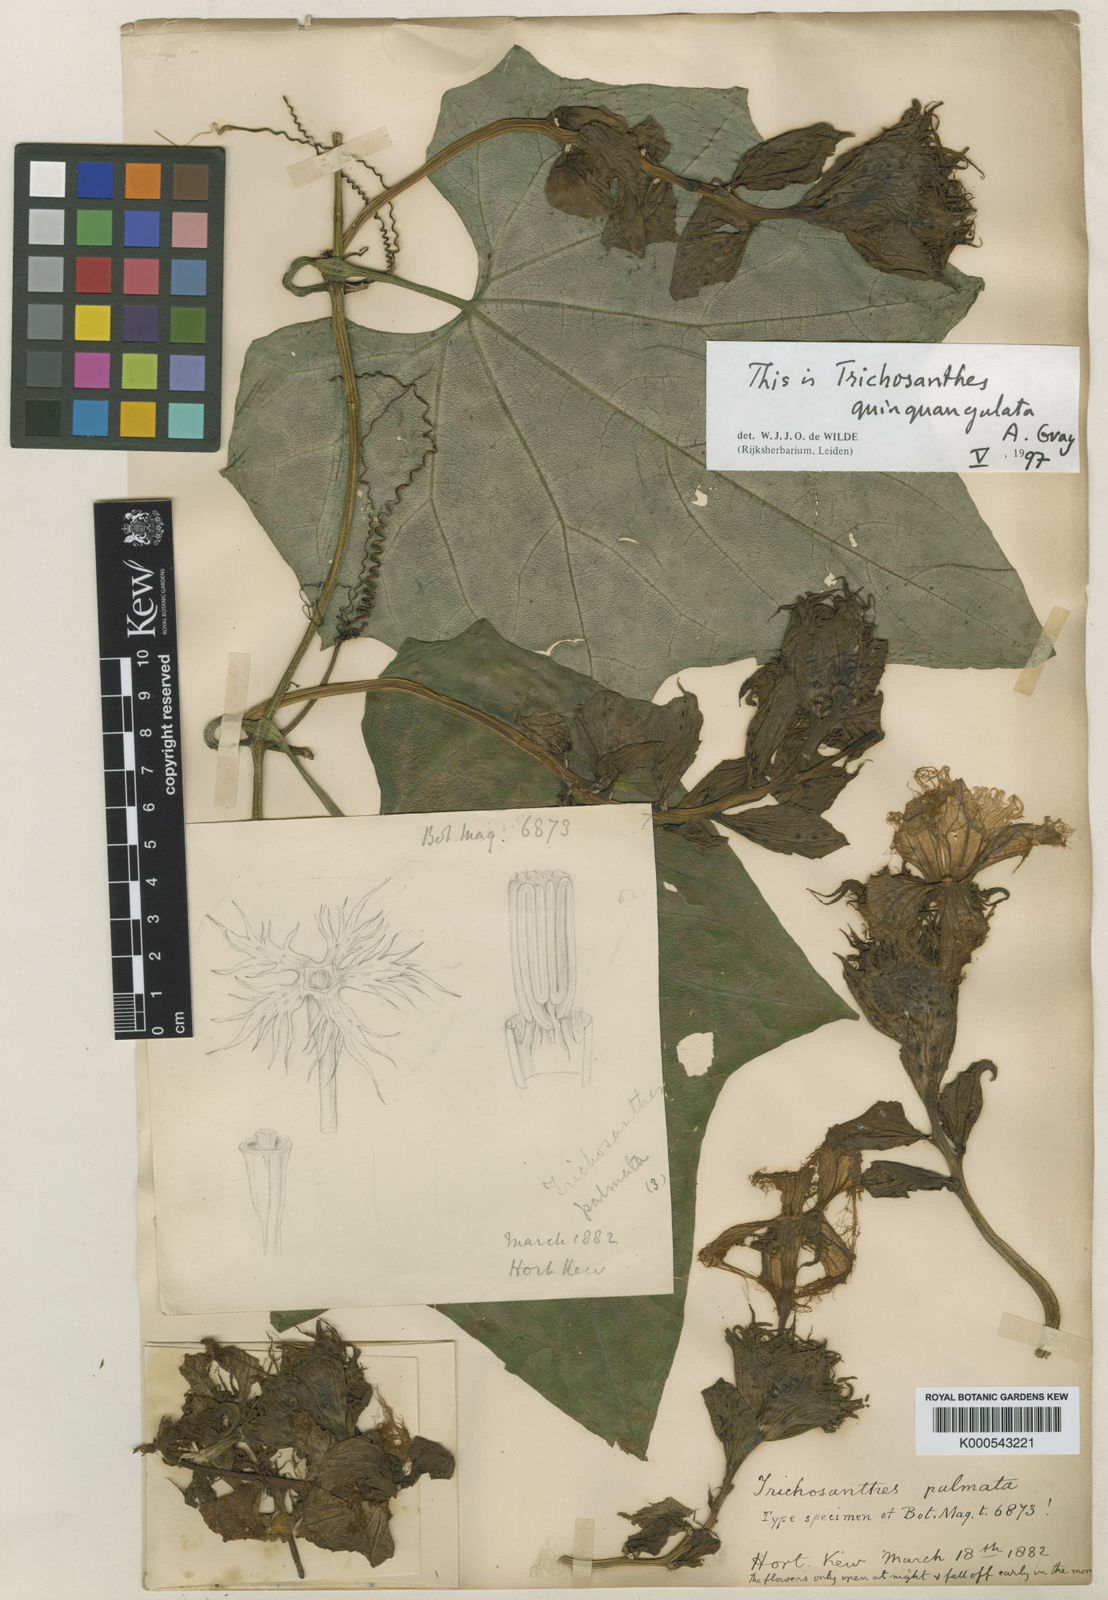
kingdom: Plantae
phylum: Tracheophyta
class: Magnoliopsida
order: Cucurbitales
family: Cucurbitaceae
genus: Trichosanthes
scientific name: Trichosanthes quinquangulata
